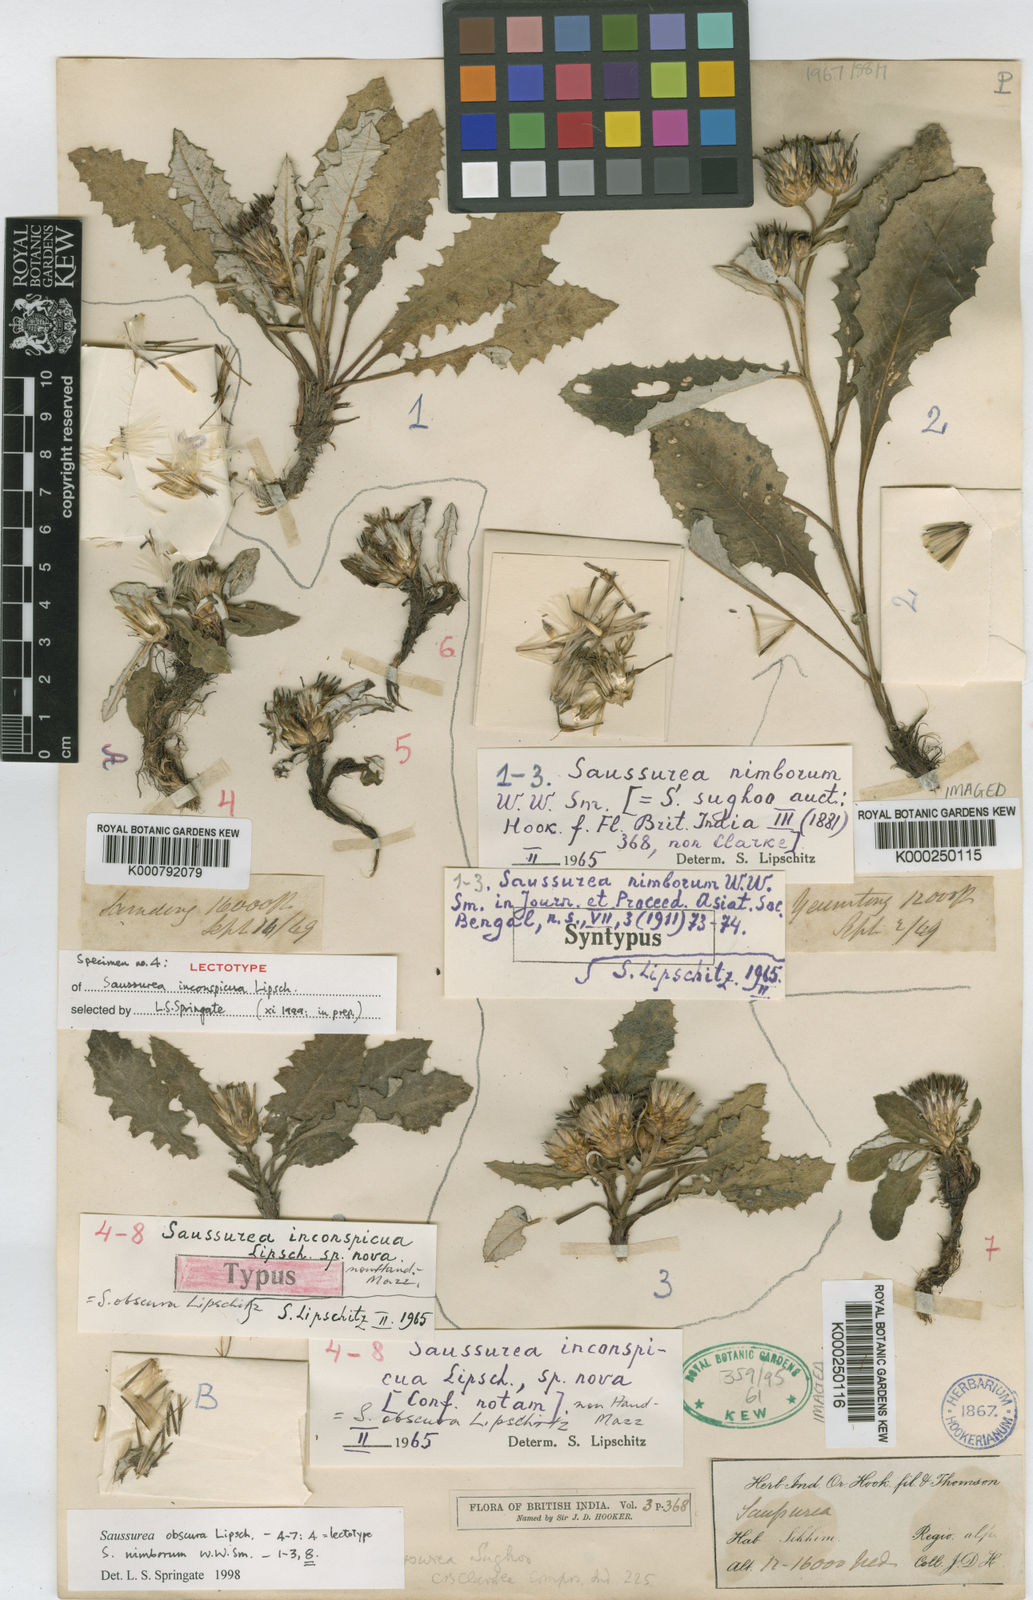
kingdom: Plantae
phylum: Tracheophyta
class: Magnoliopsida
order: Asterales
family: Asteraceae
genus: Saussurea
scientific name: Saussurea obscura
